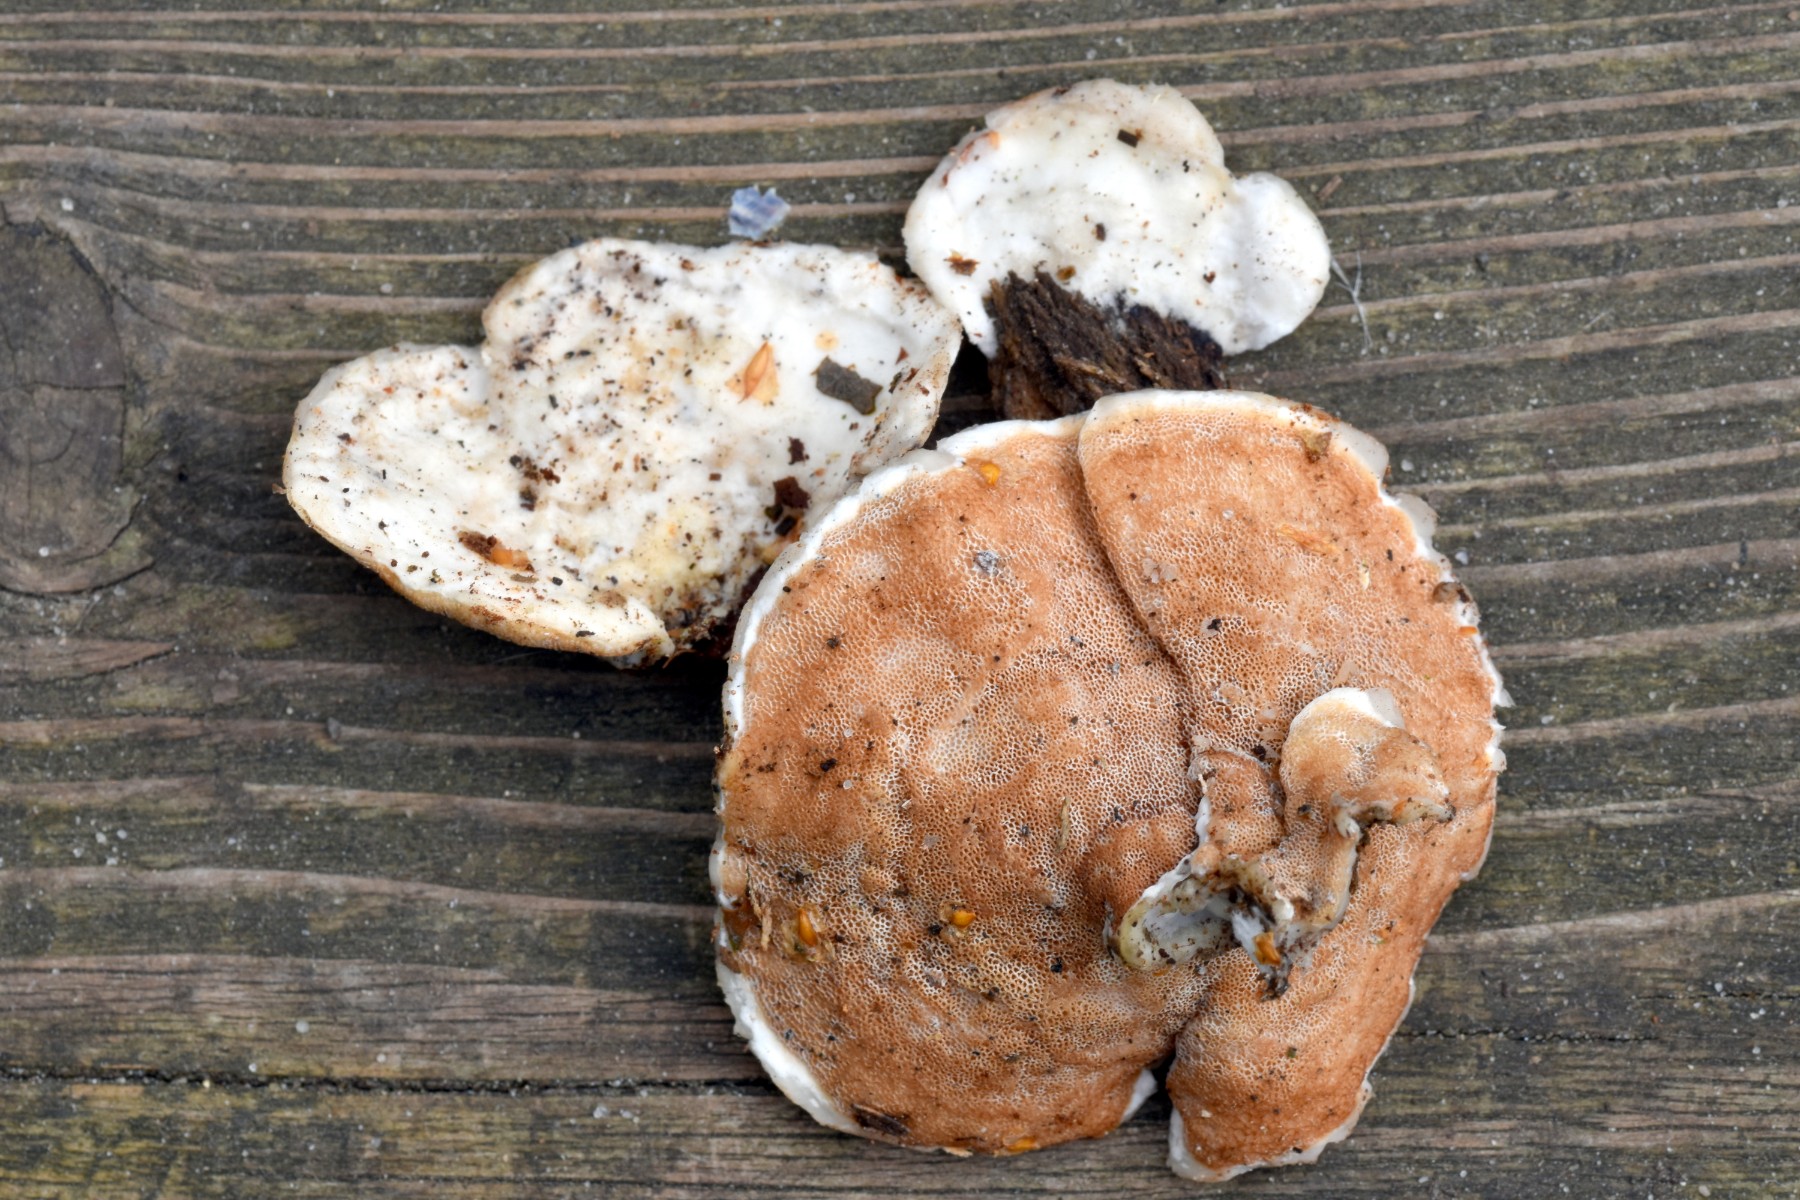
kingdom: Fungi
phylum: Basidiomycota
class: Agaricomycetes
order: Polyporales
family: Irpicaceae
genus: Vitreoporus
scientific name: Vitreoporus dichrous
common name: tofarvet foldporesvamp
